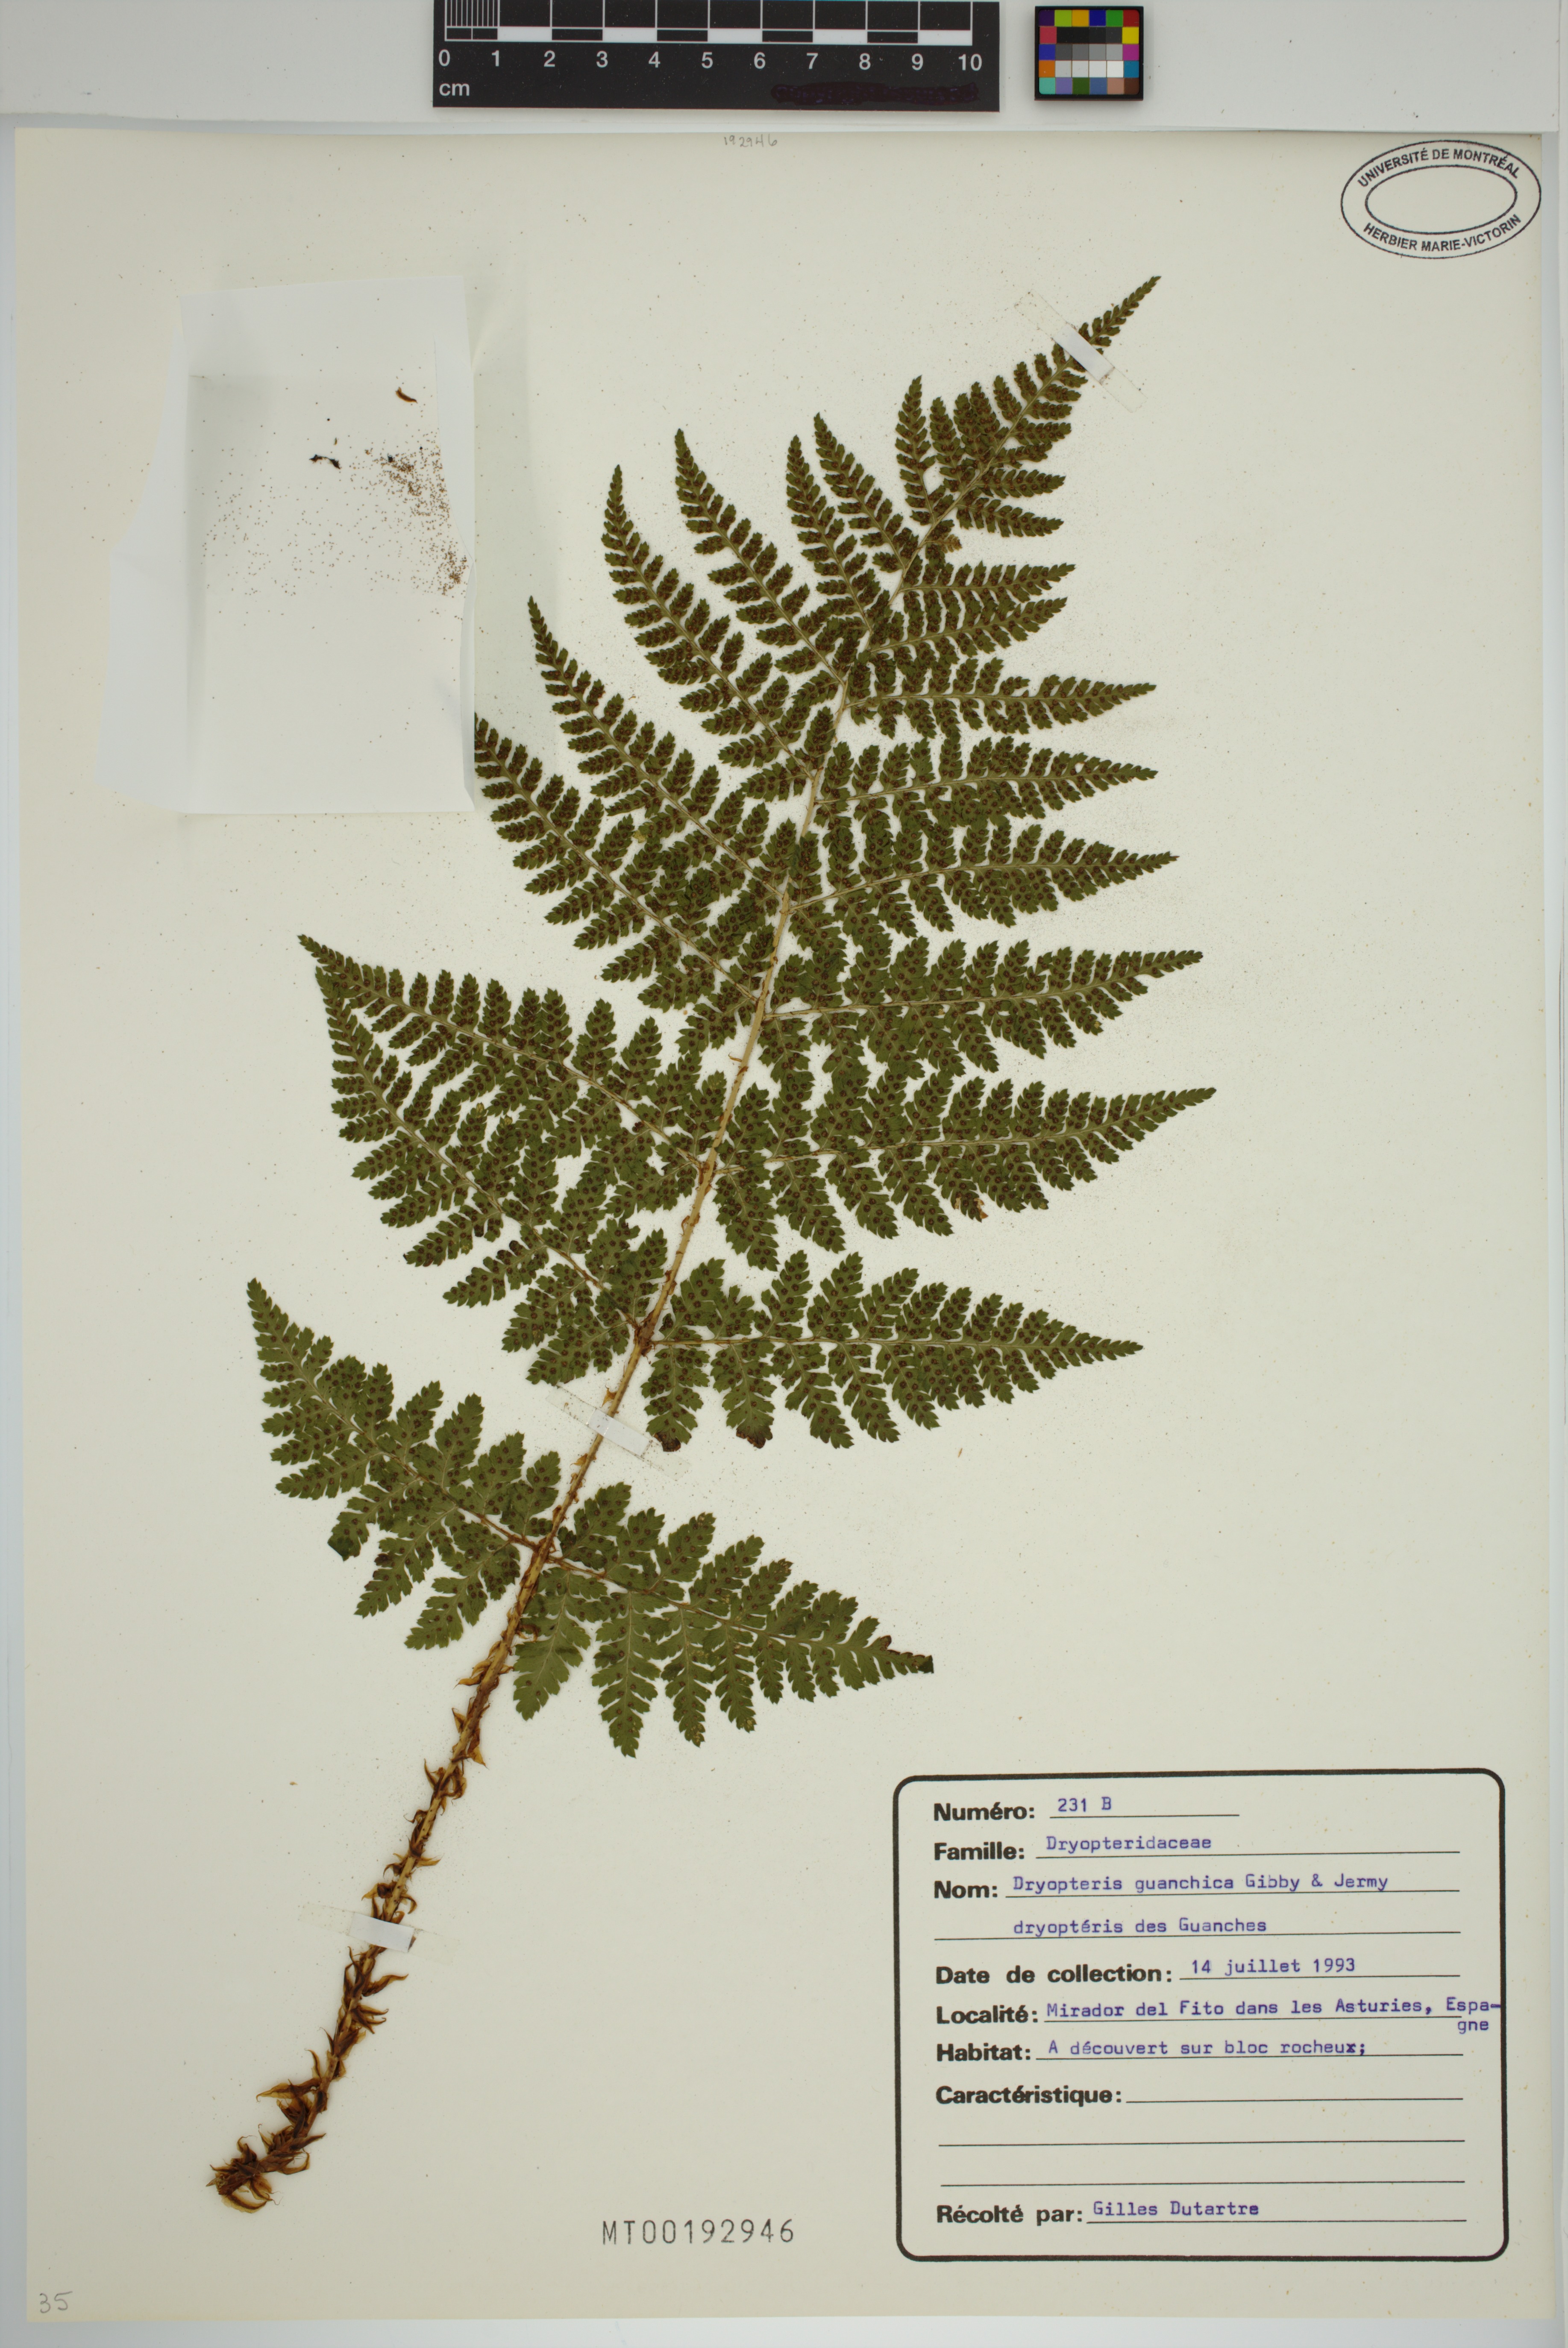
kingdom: Plantae
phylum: Tracheophyta
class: Polypodiopsida
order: Polypodiales
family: Dryopteridaceae
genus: Dryopteris
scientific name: Dryopteris guanchica
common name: Guanche woodfern
